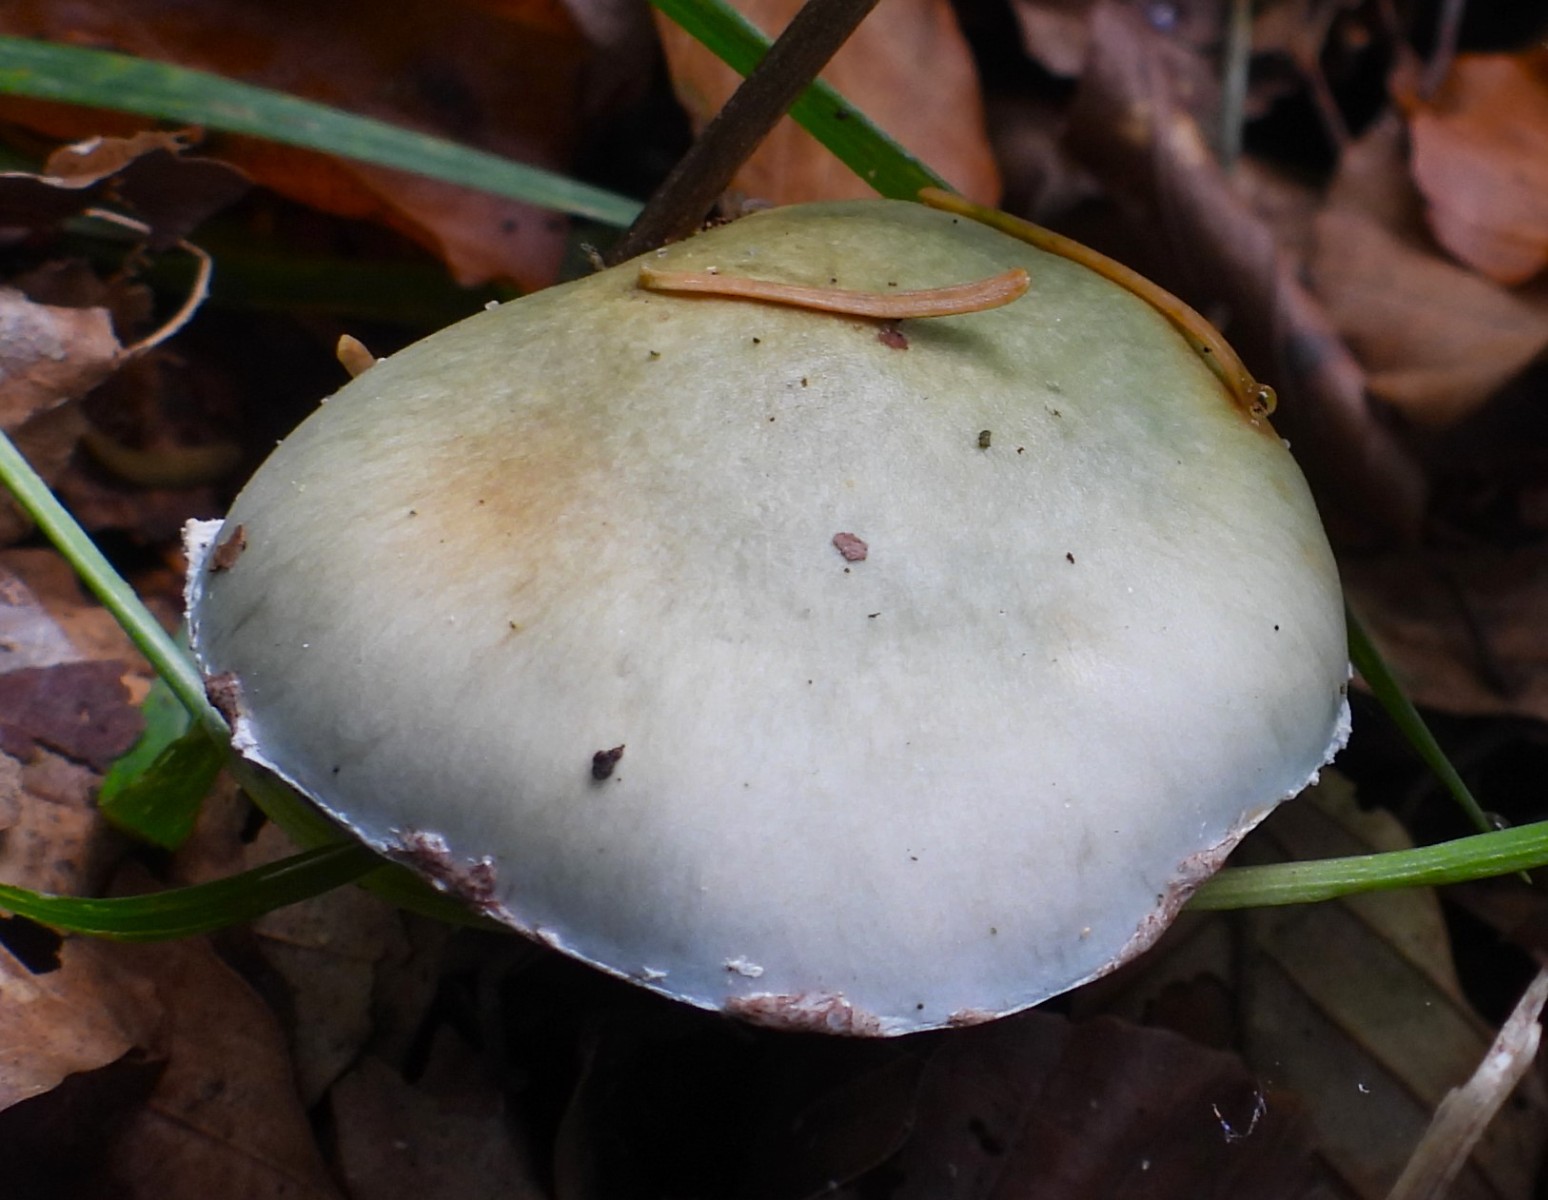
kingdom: Fungi
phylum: Basidiomycota
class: Agaricomycetes
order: Agaricales
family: Strophariaceae
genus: Stropharia
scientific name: Stropharia cyanea
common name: blågrøn bredblad
